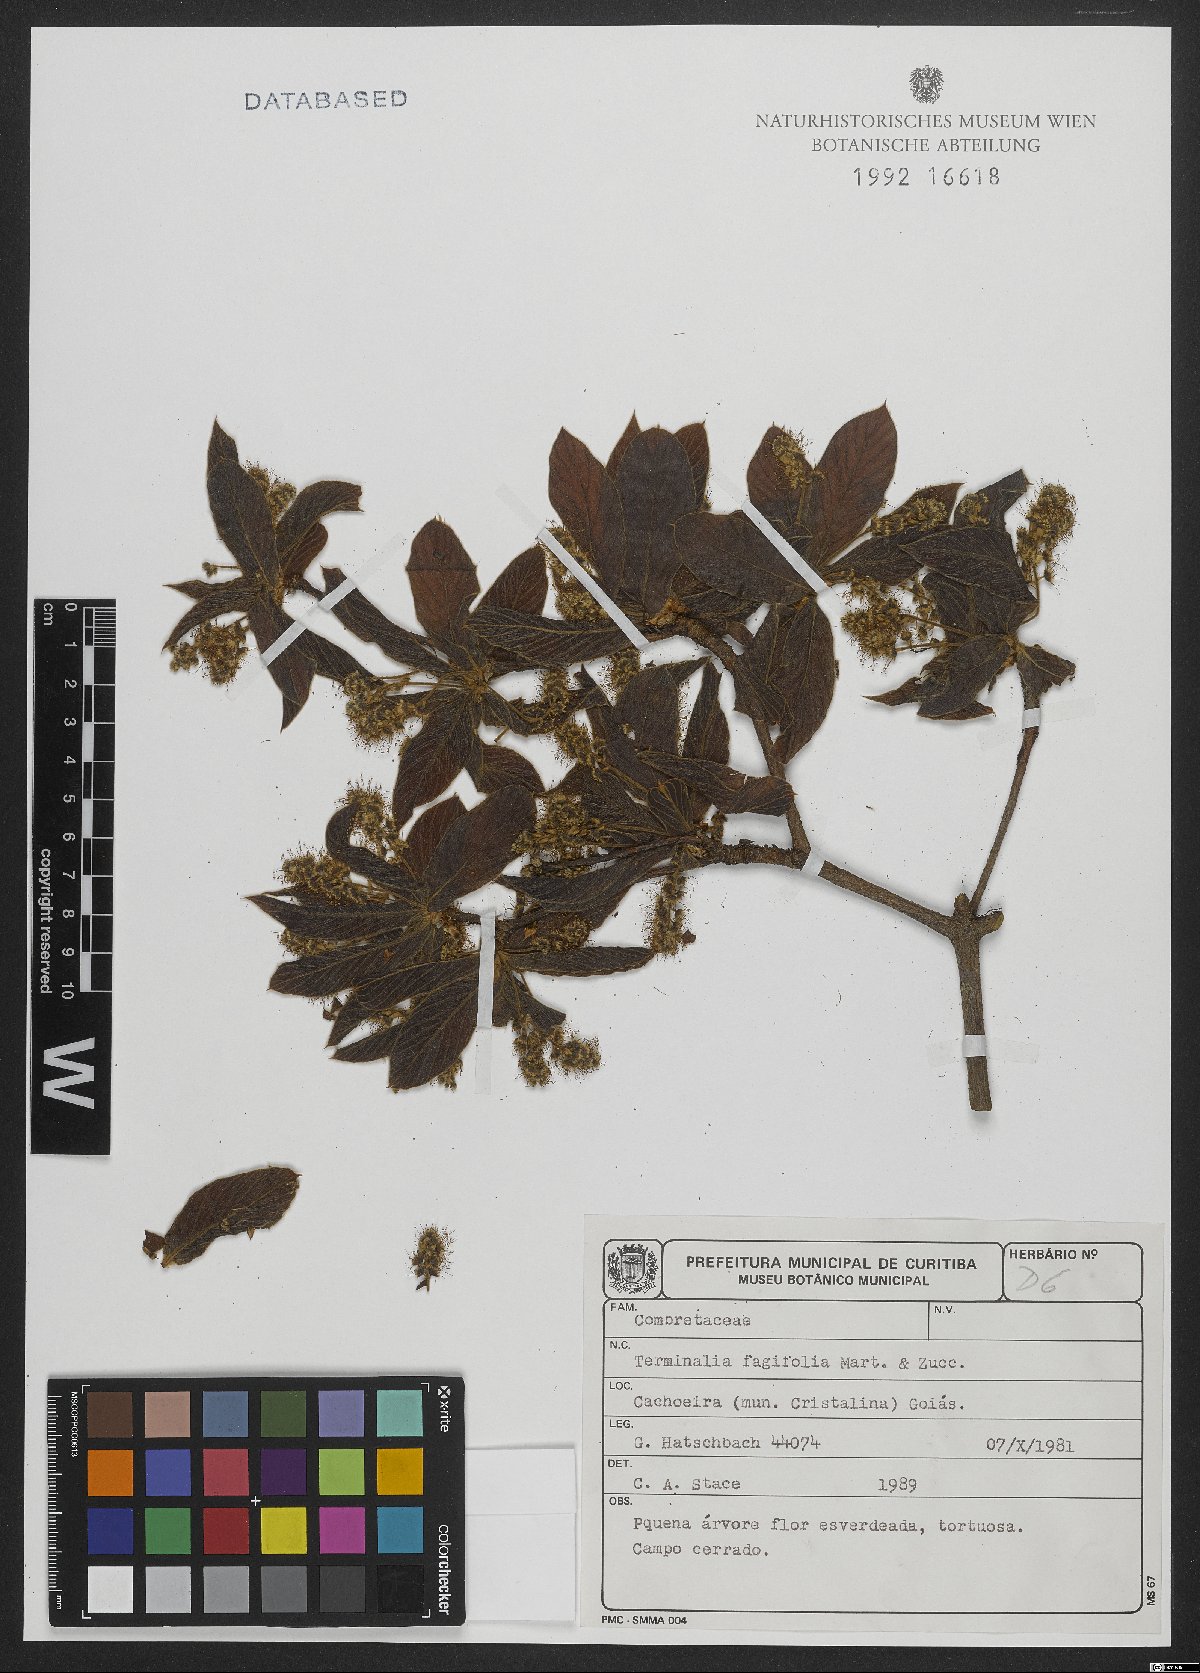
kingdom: Plantae
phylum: Tracheophyta
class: Magnoliopsida
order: Myrtales
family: Combretaceae
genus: Terminalia
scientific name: Terminalia fagifolia
